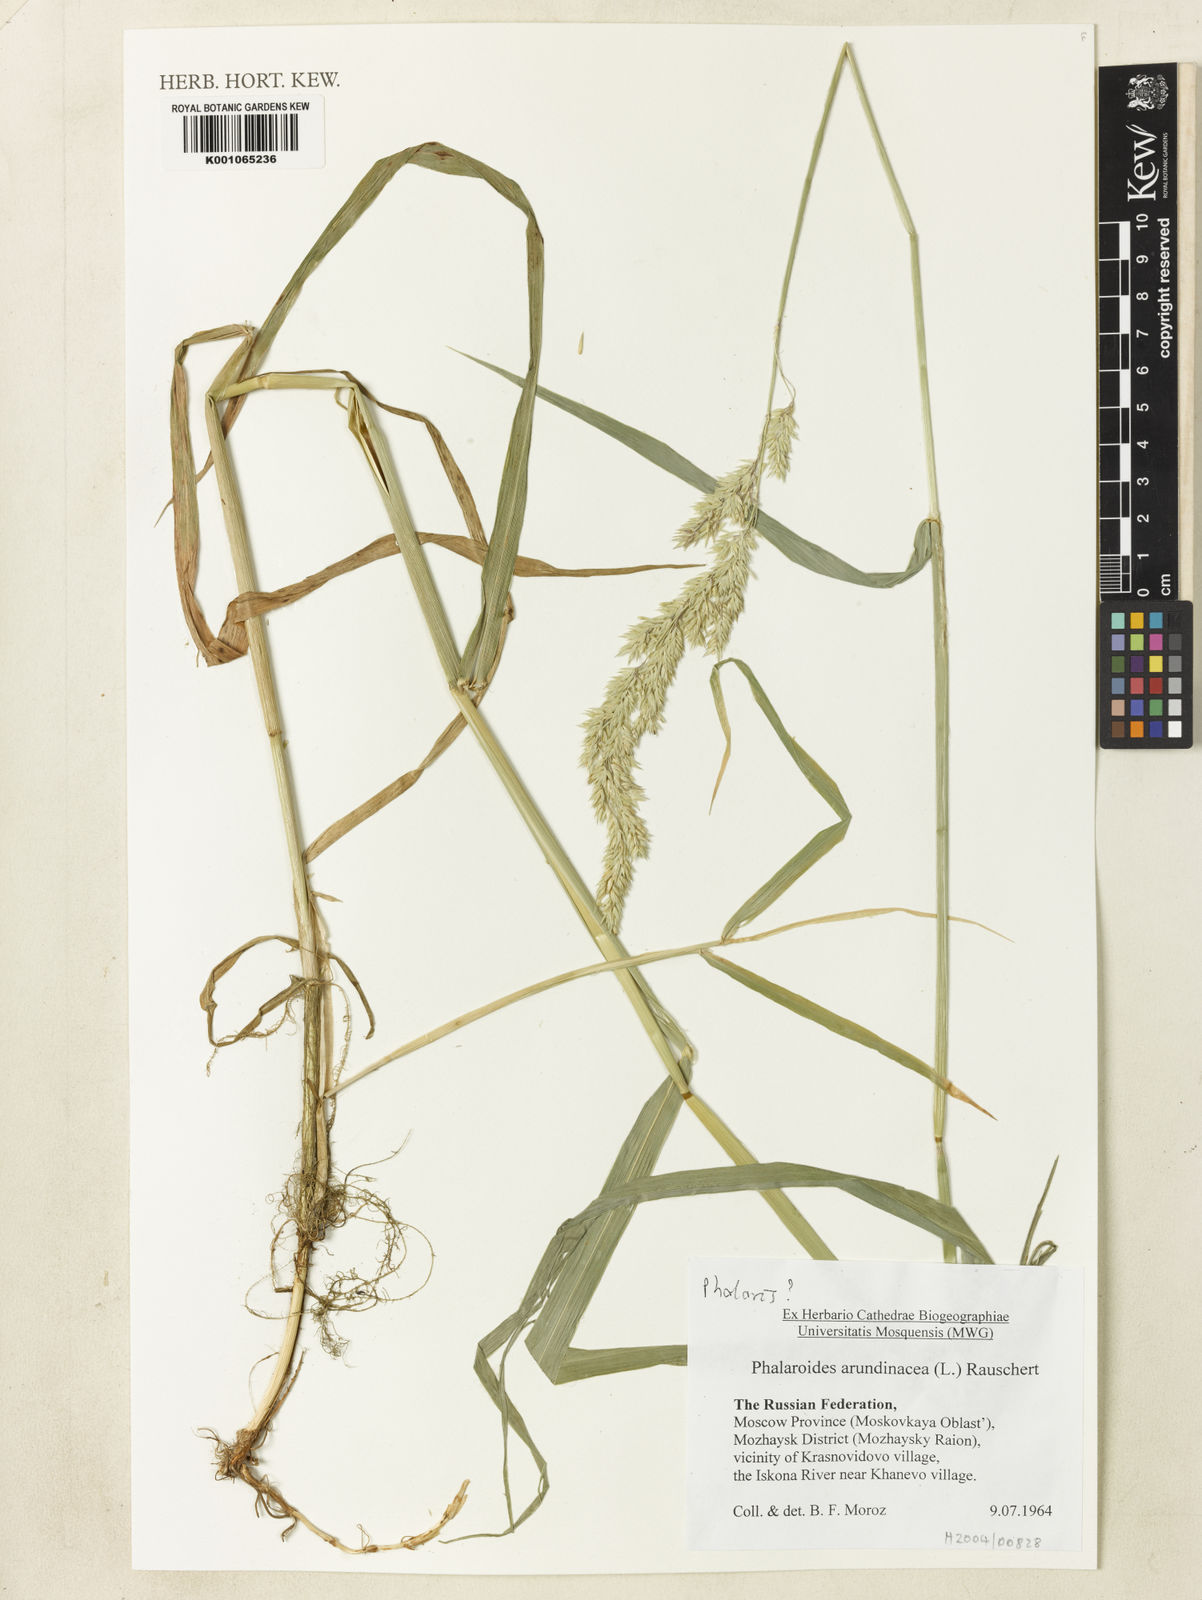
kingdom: Plantae
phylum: Tracheophyta
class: Liliopsida
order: Poales
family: Poaceae
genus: Phalaris
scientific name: Phalaris arundinacea
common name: Reed canary-grass
